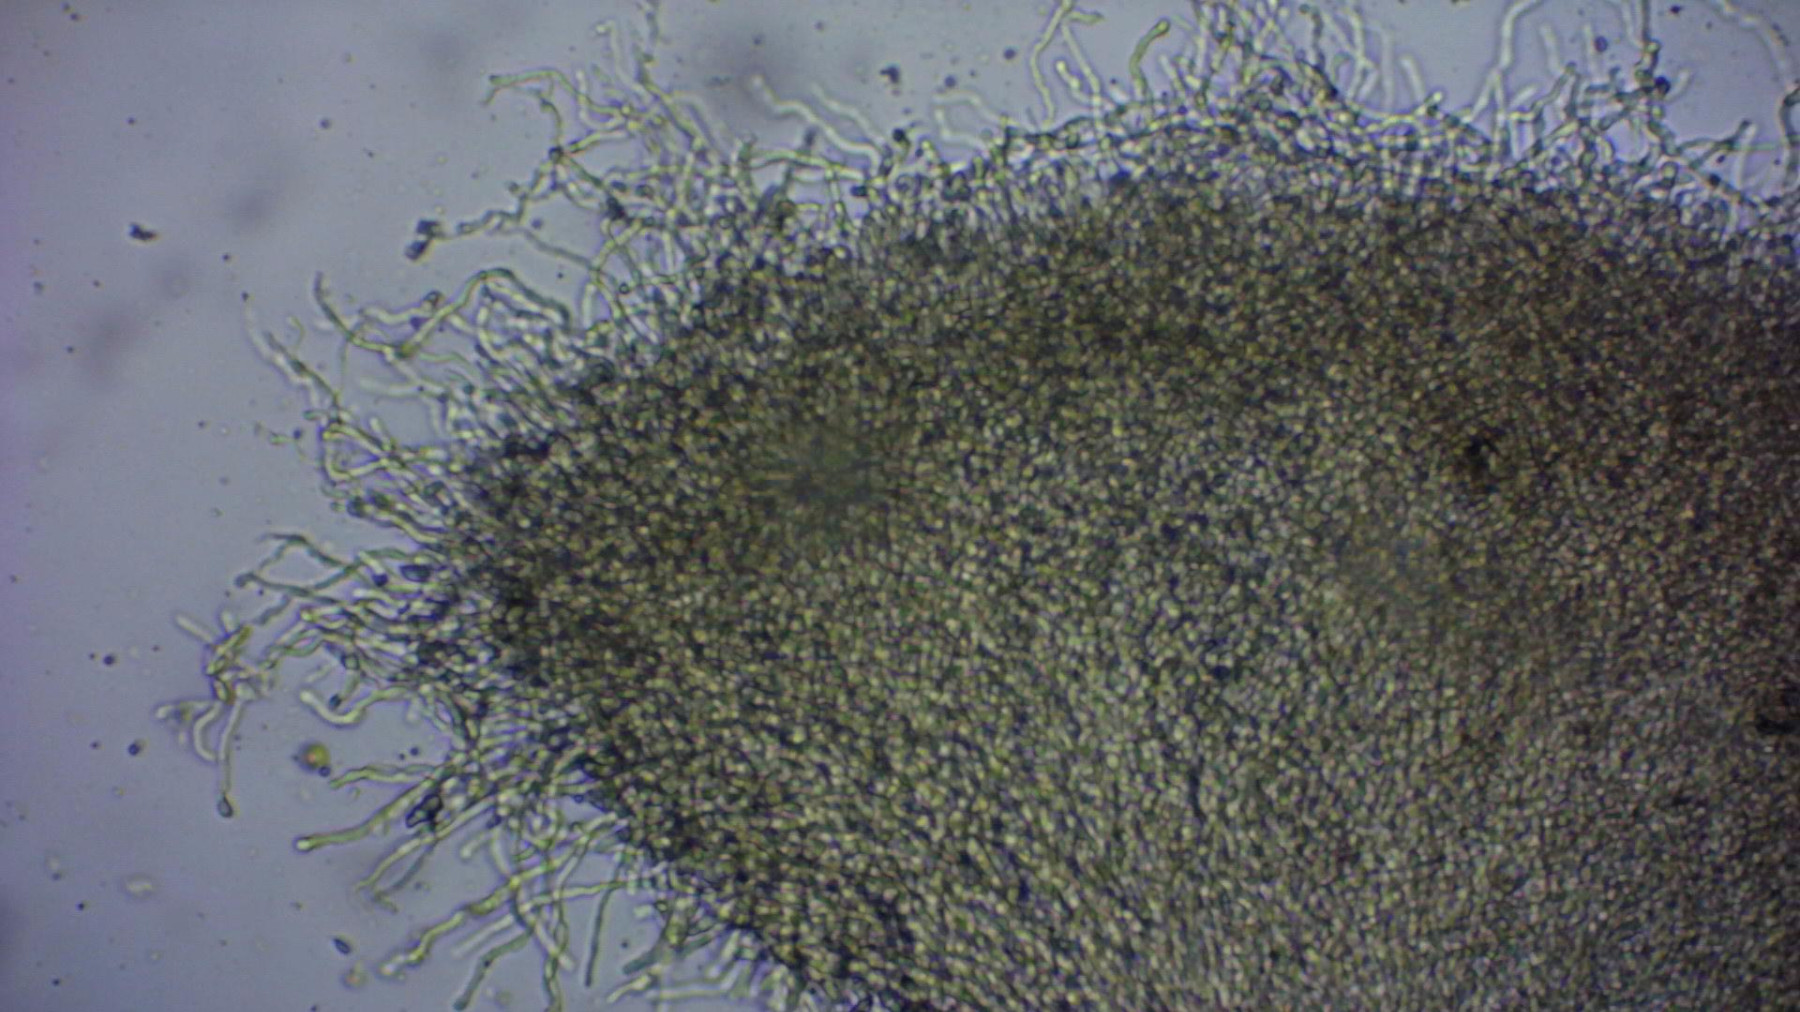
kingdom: Fungi
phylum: Ascomycota
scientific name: Ascomycota
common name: sæksvampe
